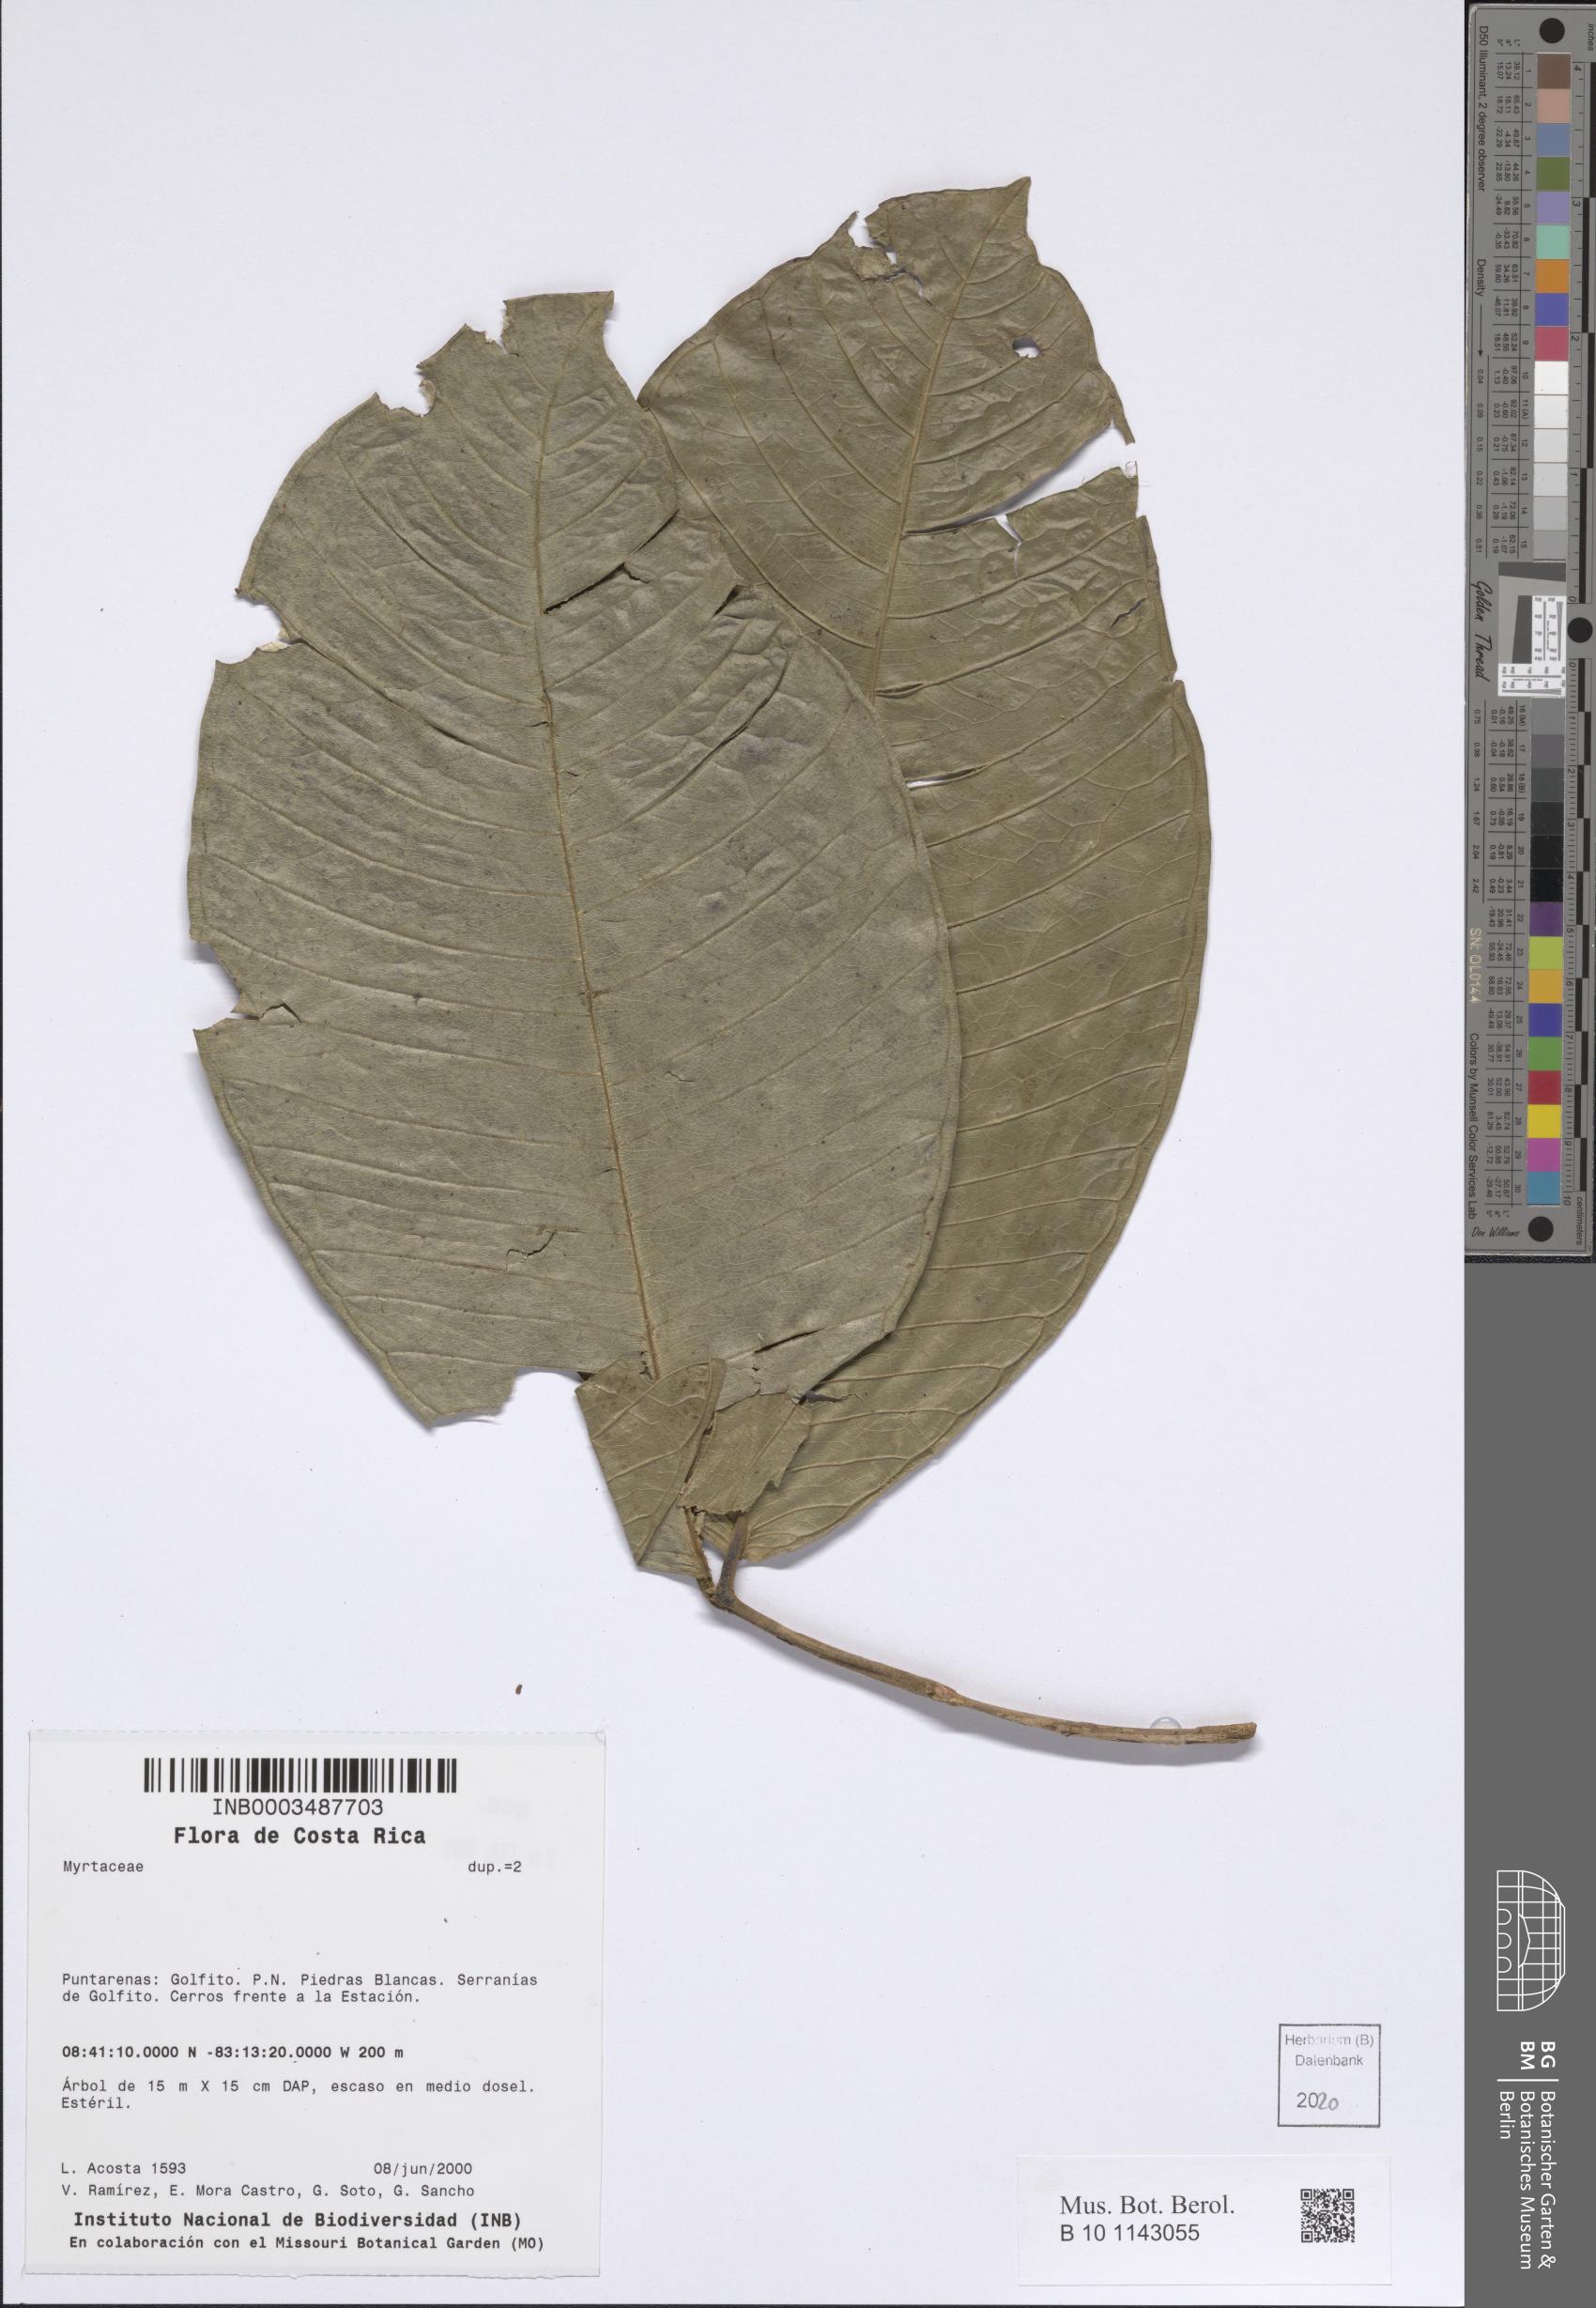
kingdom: Plantae
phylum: Tracheophyta
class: Magnoliopsida
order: Myrtales
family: Myrtaceae
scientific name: Myrtaceae
